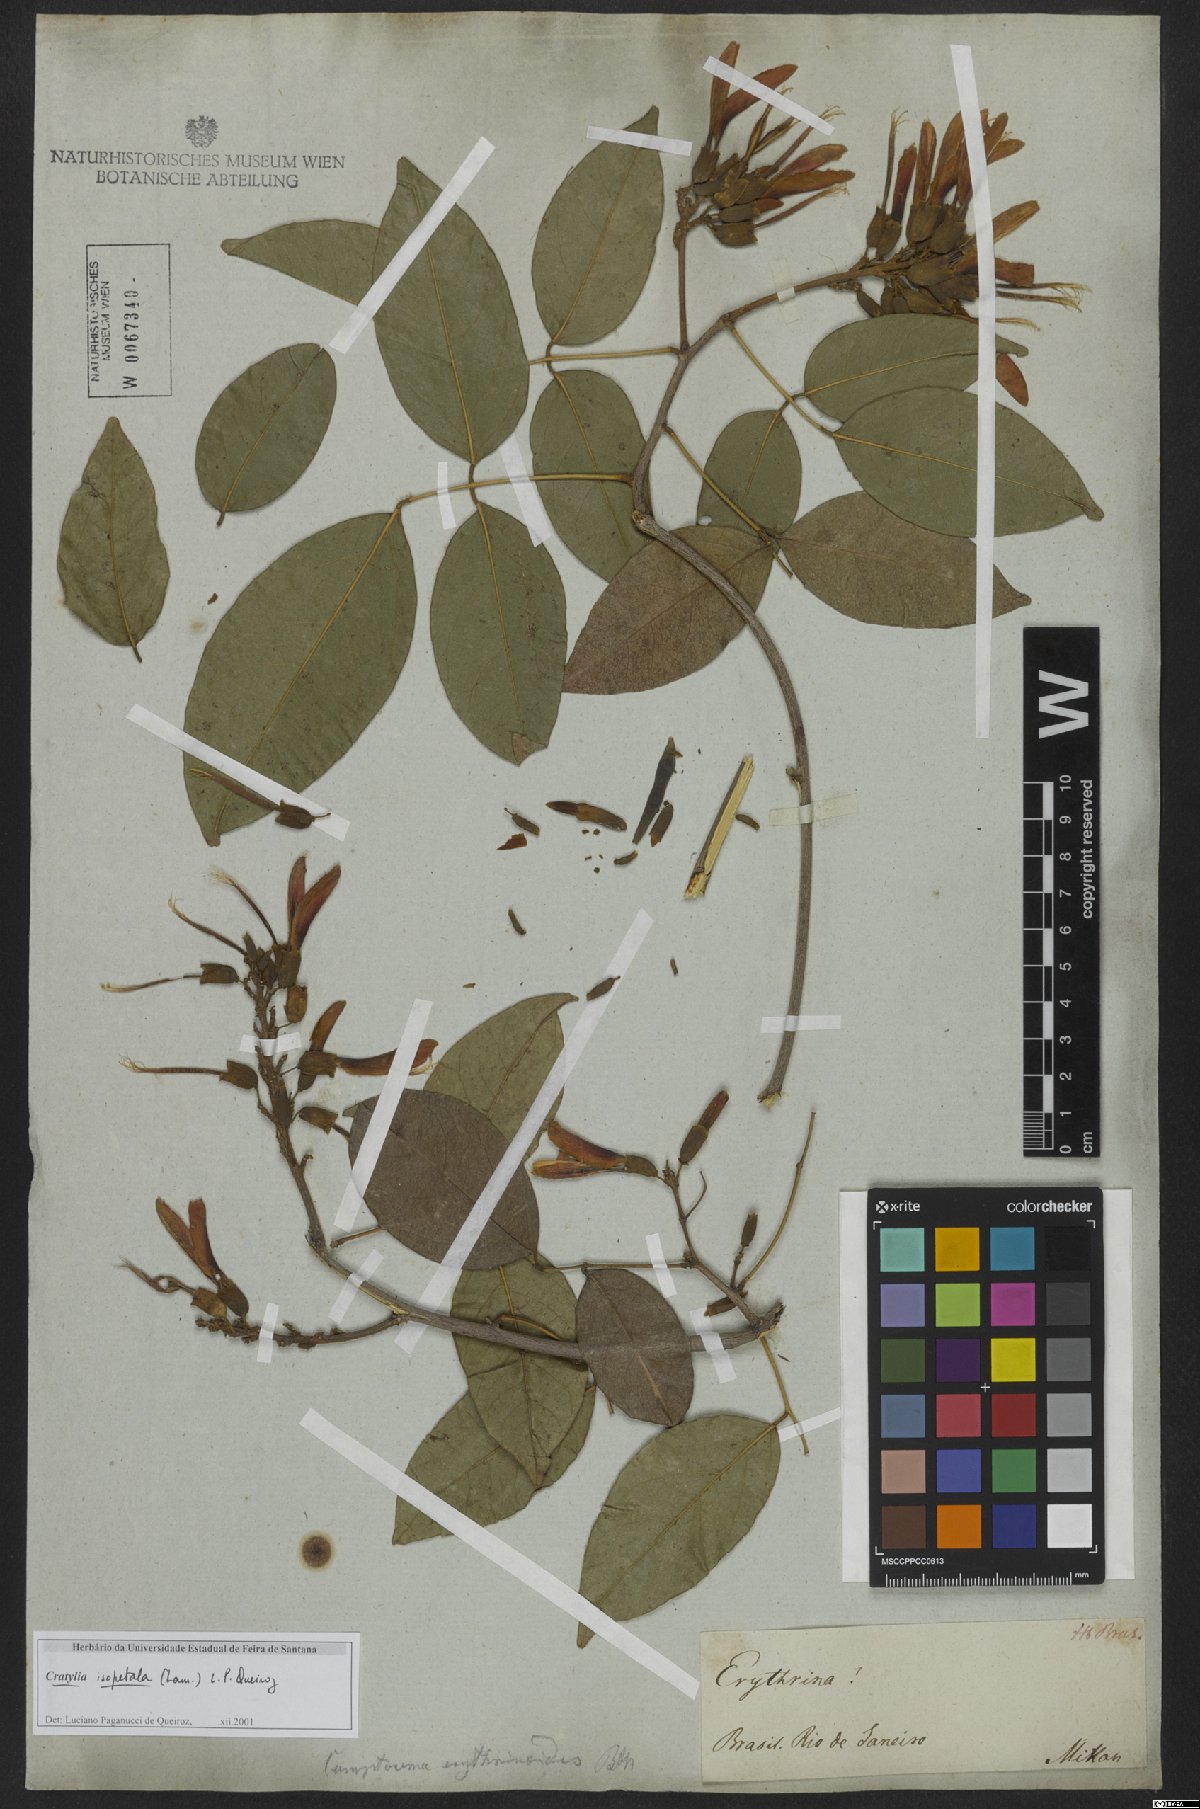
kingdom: Plantae
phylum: Tracheophyta
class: Magnoliopsida
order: Fabales
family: Fabaceae
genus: Cratylia
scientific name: Cratylia isopetala
